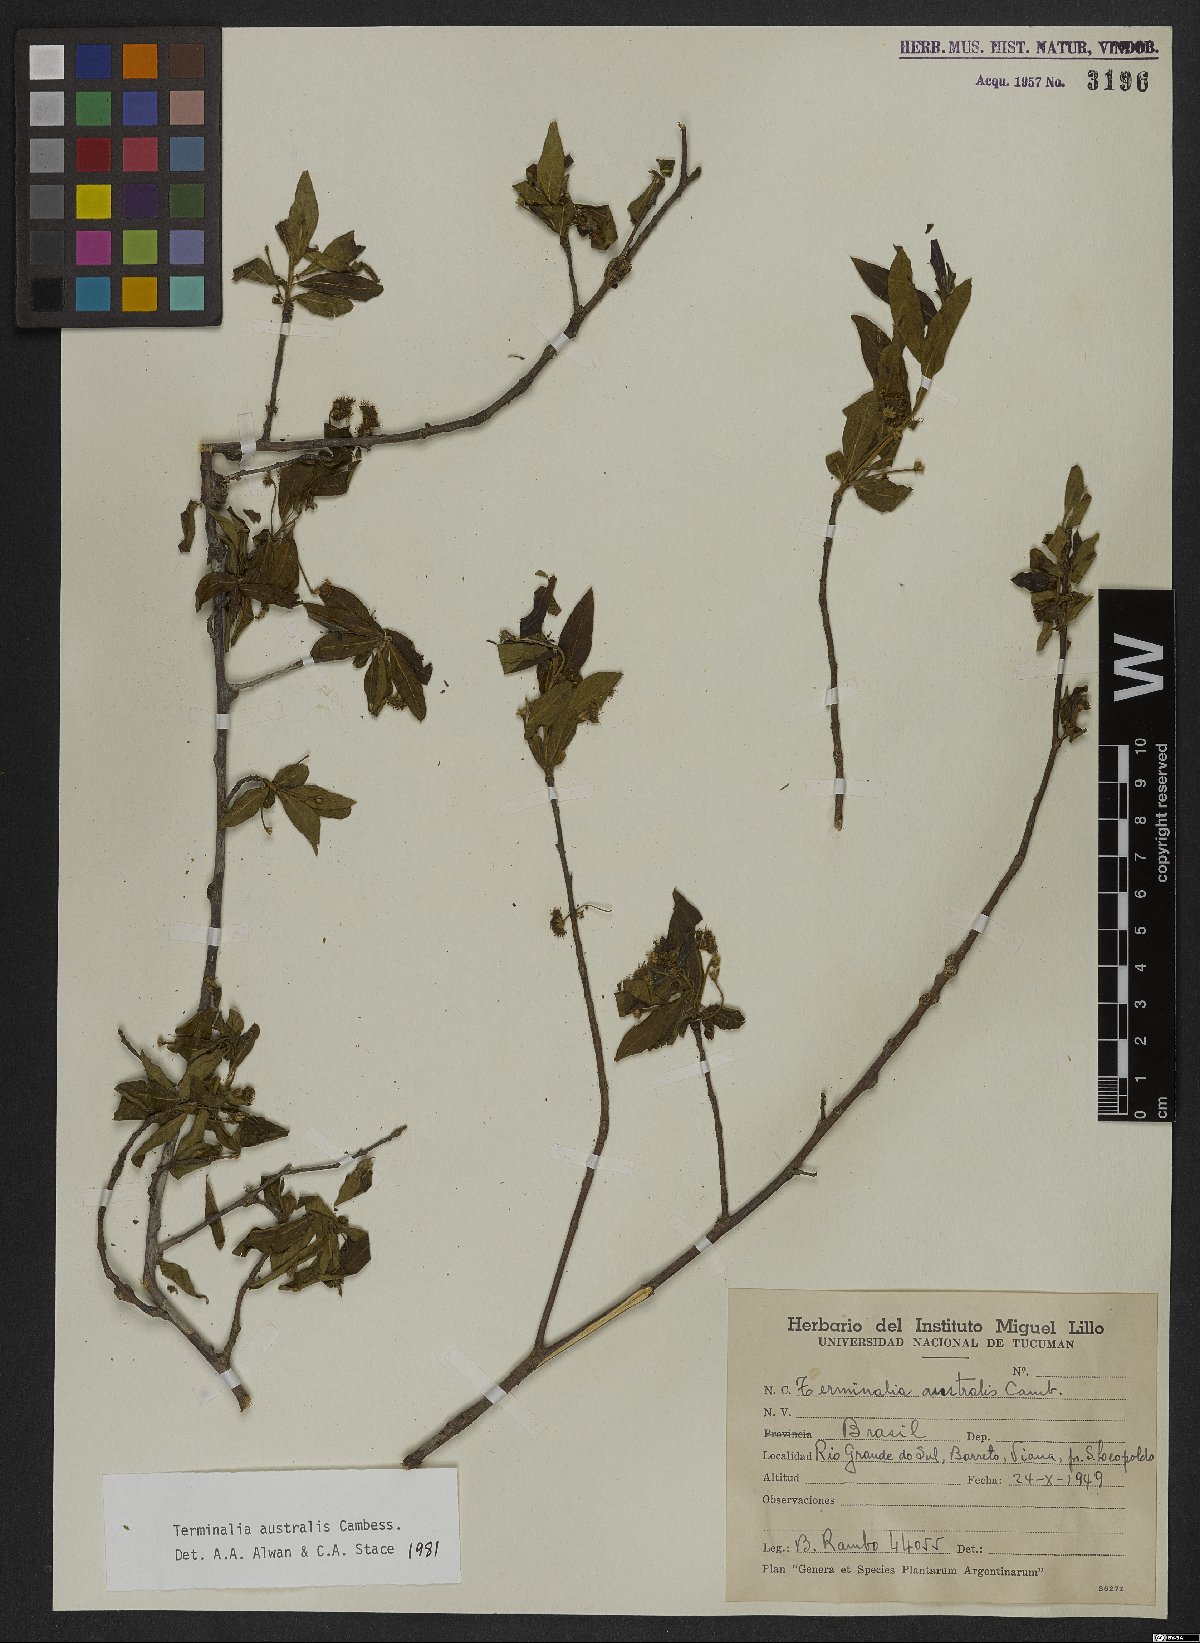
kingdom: Plantae
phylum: Tracheophyta
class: Magnoliopsida
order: Myrtales
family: Combretaceae
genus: Terminalia
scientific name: Terminalia australis
